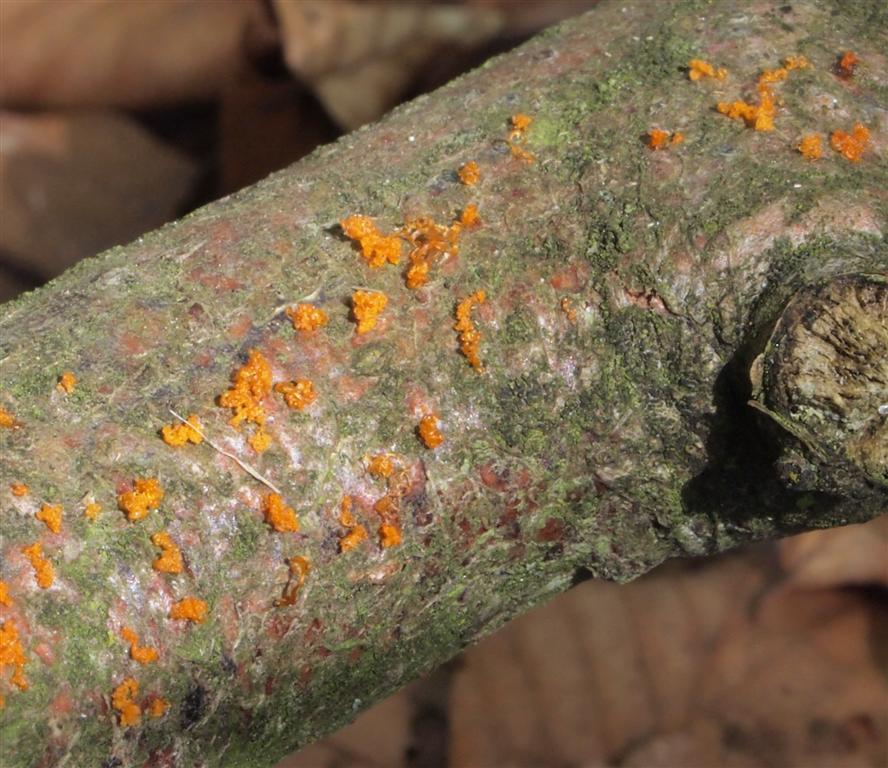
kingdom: Fungi
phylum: Ascomycota
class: Sordariomycetes
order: Xylariales
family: Diatrypaceae
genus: Eutypella
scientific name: Eutypella quaternata
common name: bøge-korsprik
